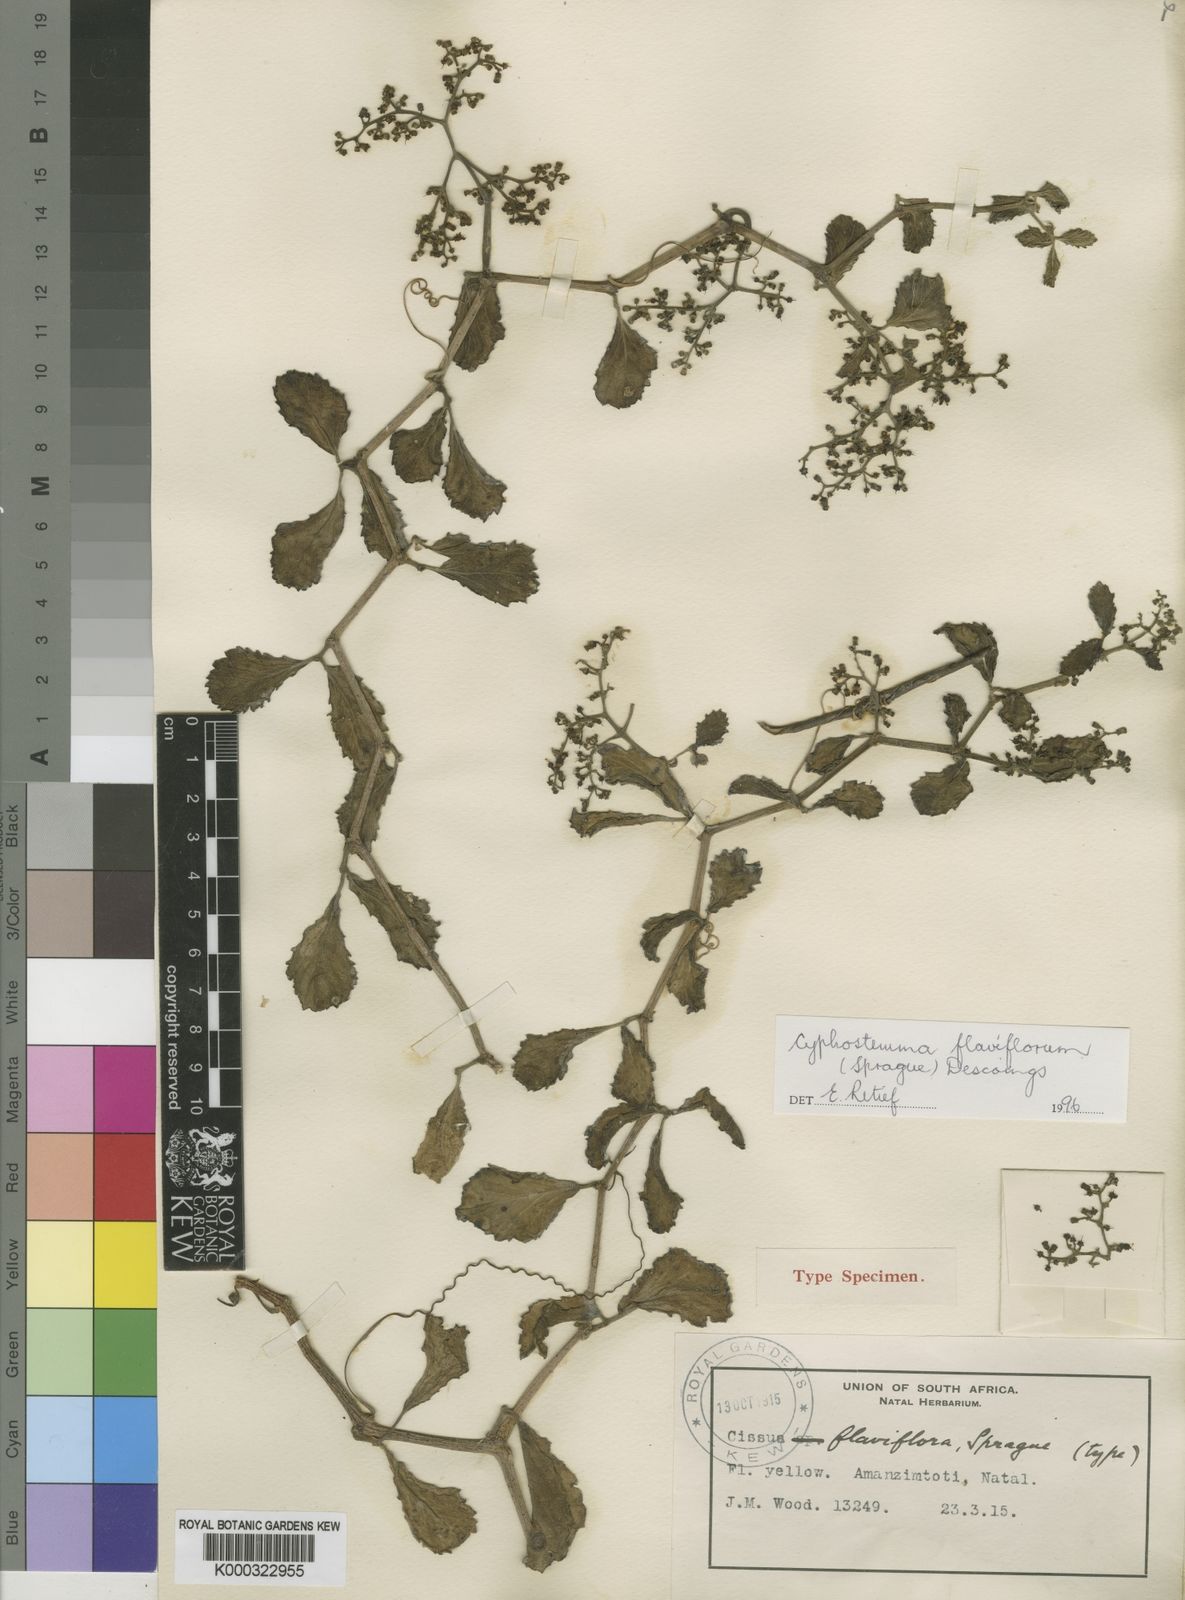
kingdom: Plantae
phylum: Tracheophyta
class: Magnoliopsida
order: Vitales
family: Vitaceae
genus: Cyphostemma
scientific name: Cyphostemma flaviflorum
